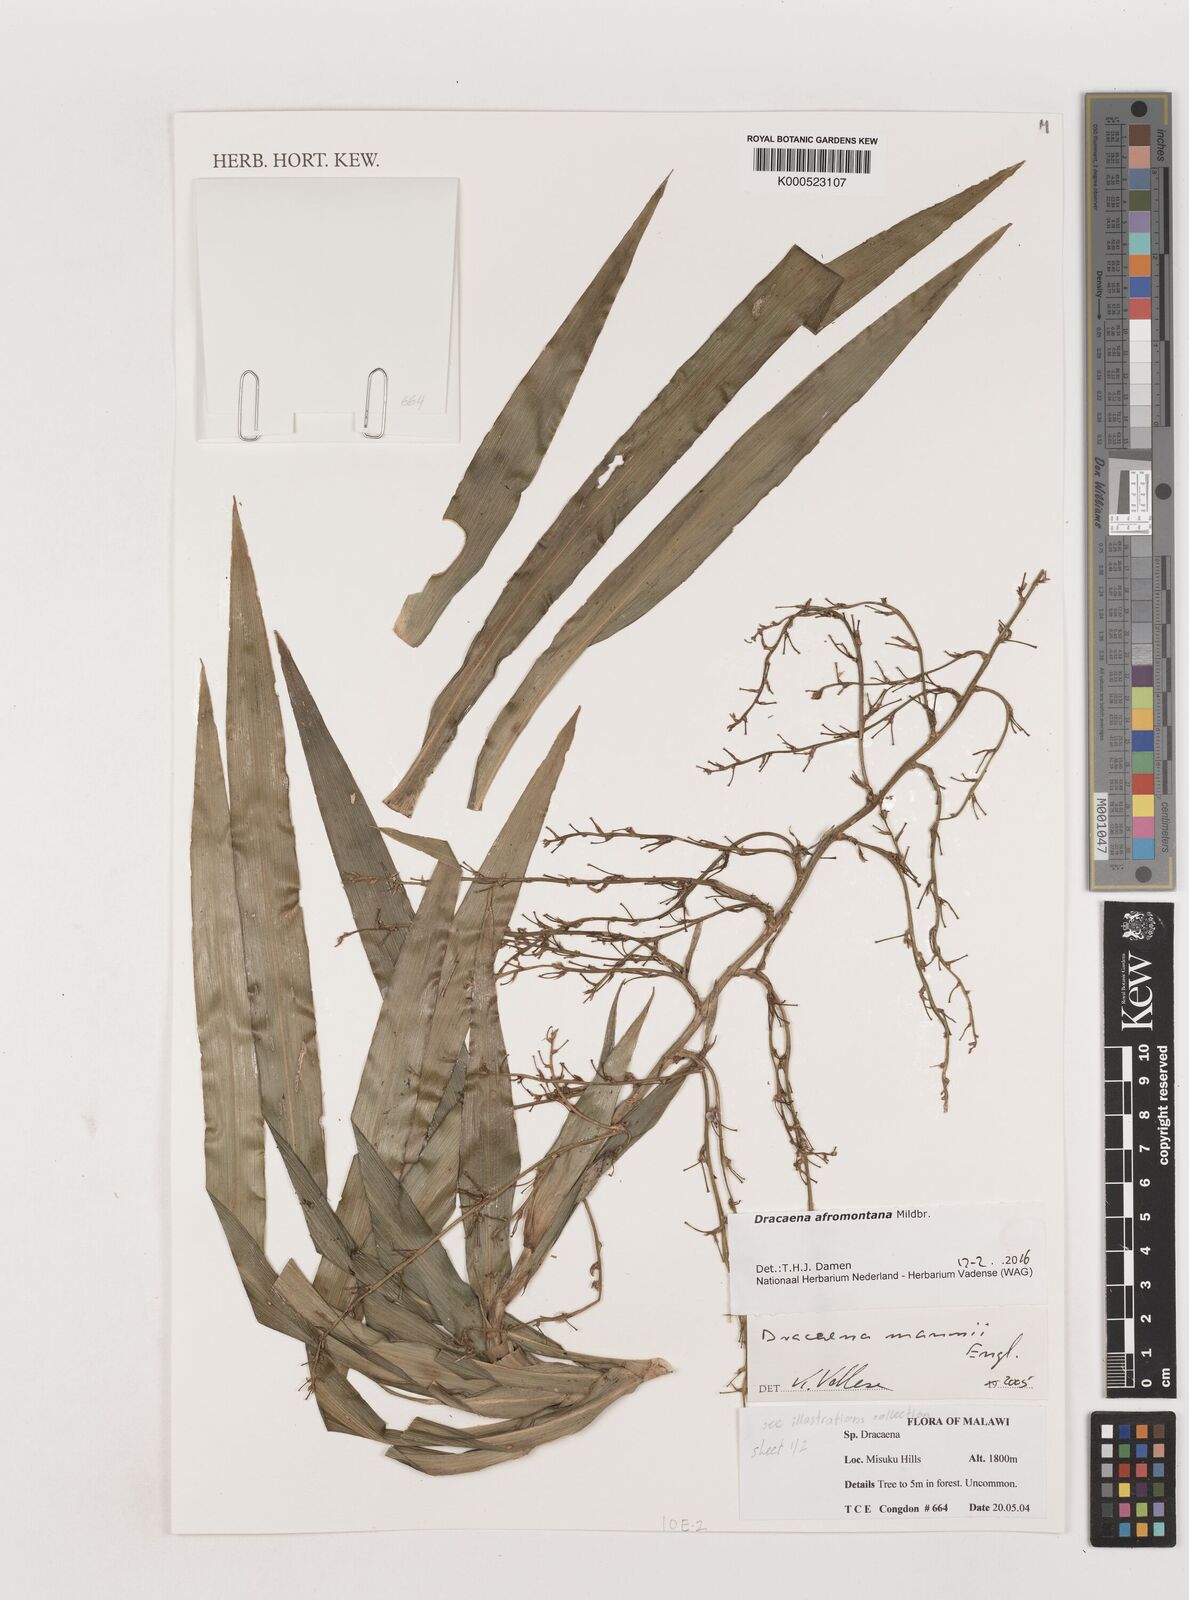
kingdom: Plantae
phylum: Tracheophyta
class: Liliopsida
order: Asparagales
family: Asparagaceae
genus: Dracaena
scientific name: Dracaena afromontana
